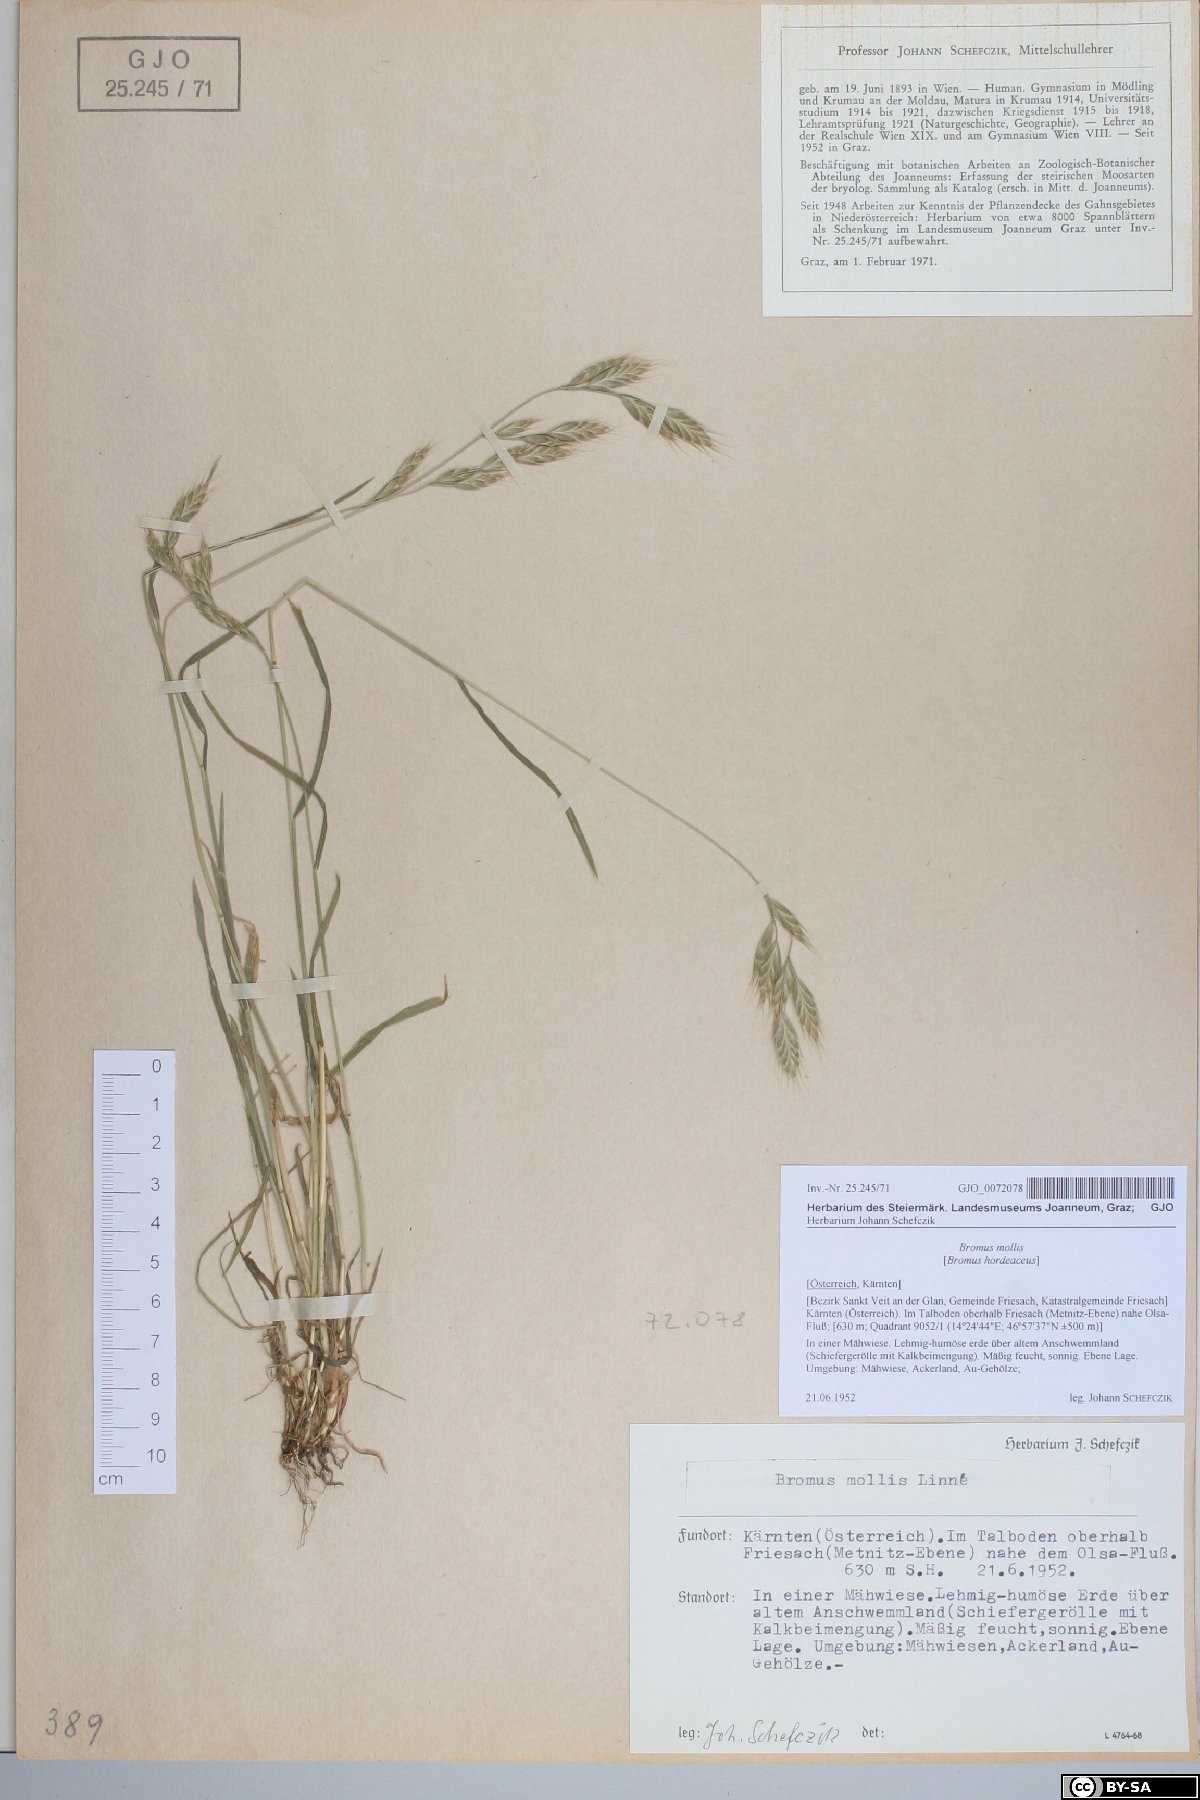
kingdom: Plantae
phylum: Tracheophyta
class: Liliopsida
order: Poales
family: Poaceae
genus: Bromus
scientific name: Bromus hordeaceus
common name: Soft brome
